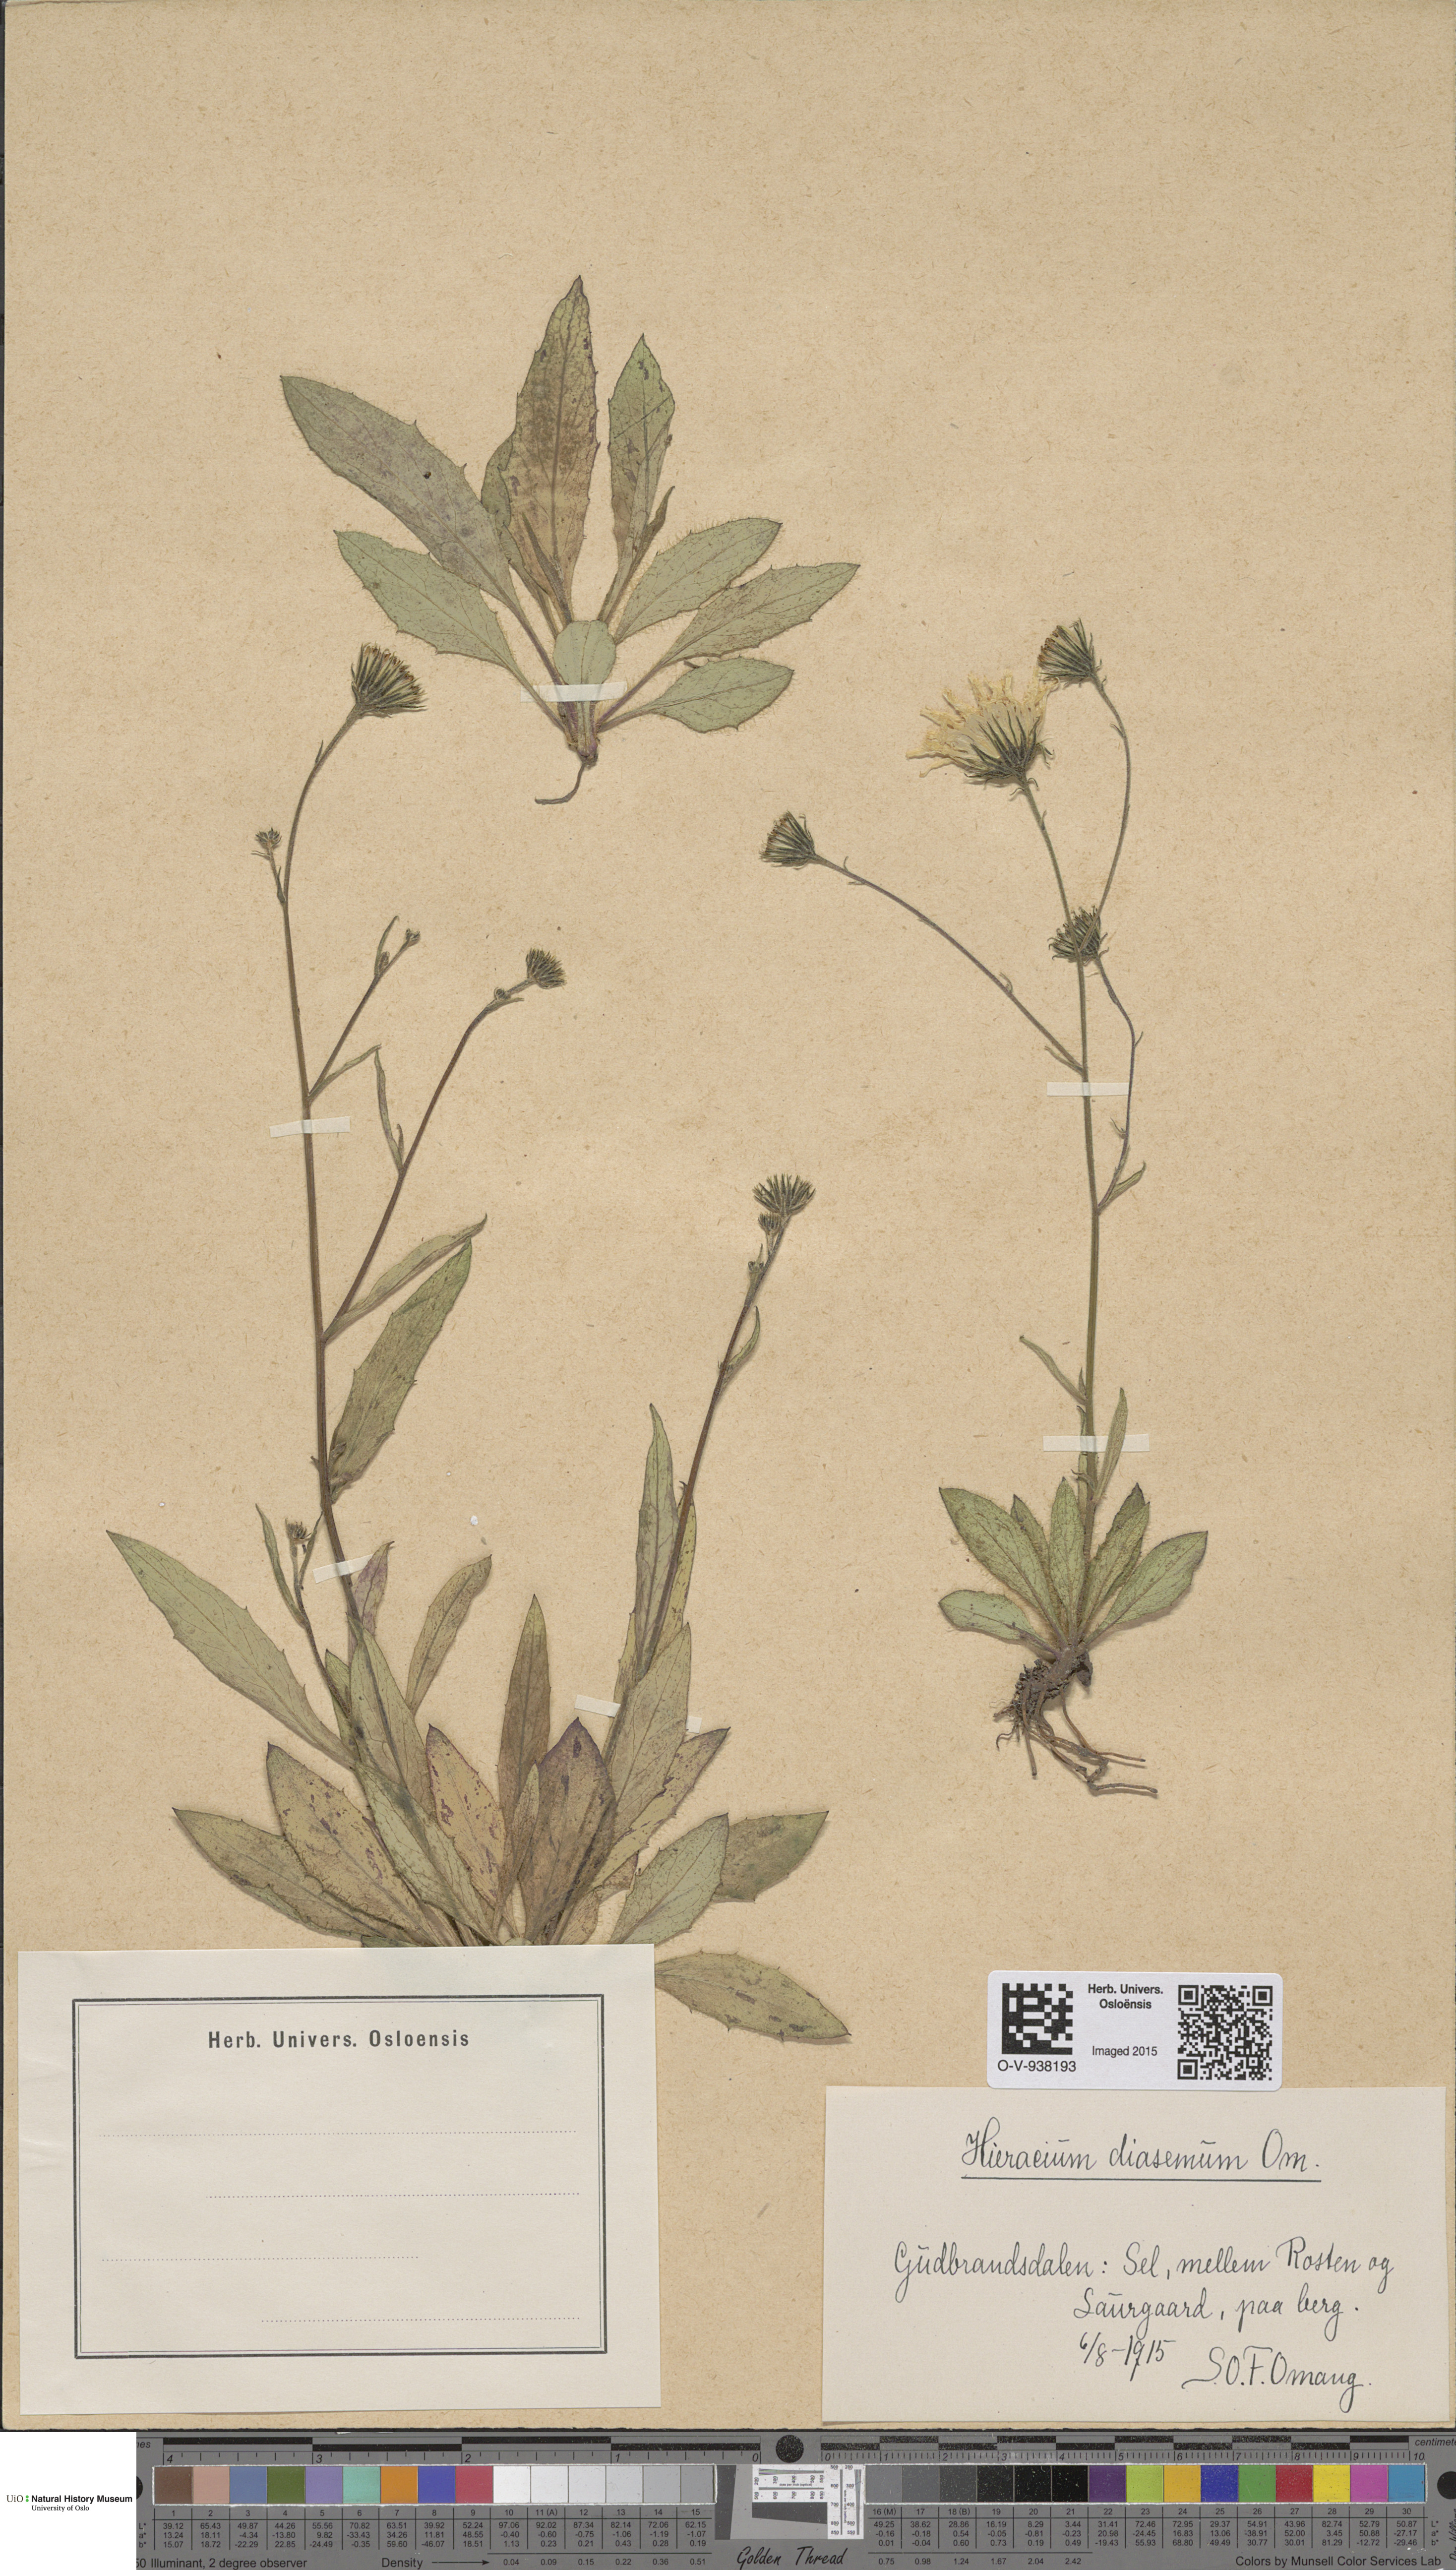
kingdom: Plantae
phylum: Tracheophyta
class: Magnoliopsida
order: Asterales
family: Asteraceae
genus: Hieracium
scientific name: Hieracium saxifragum
